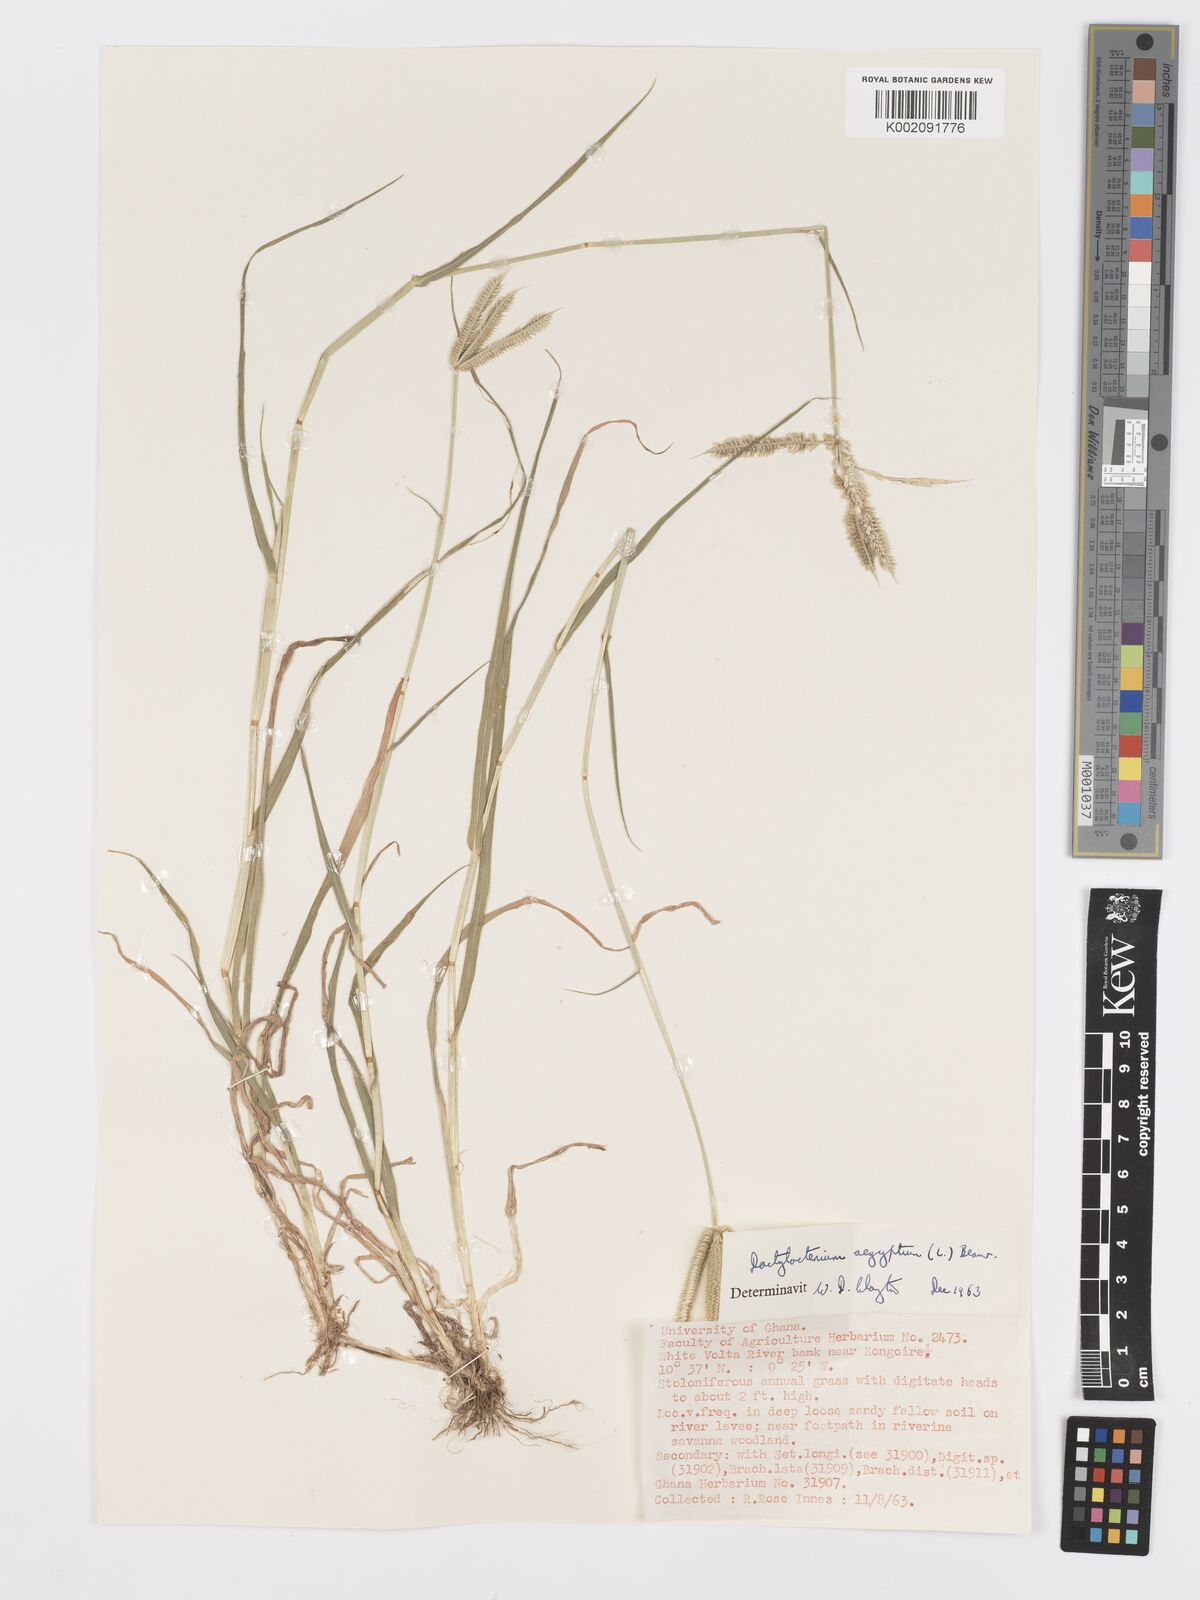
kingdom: Plantae
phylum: Tracheophyta
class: Liliopsida
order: Poales
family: Poaceae
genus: Dactyloctenium
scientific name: Dactyloctenium aegyptium
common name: Egyptian grass
